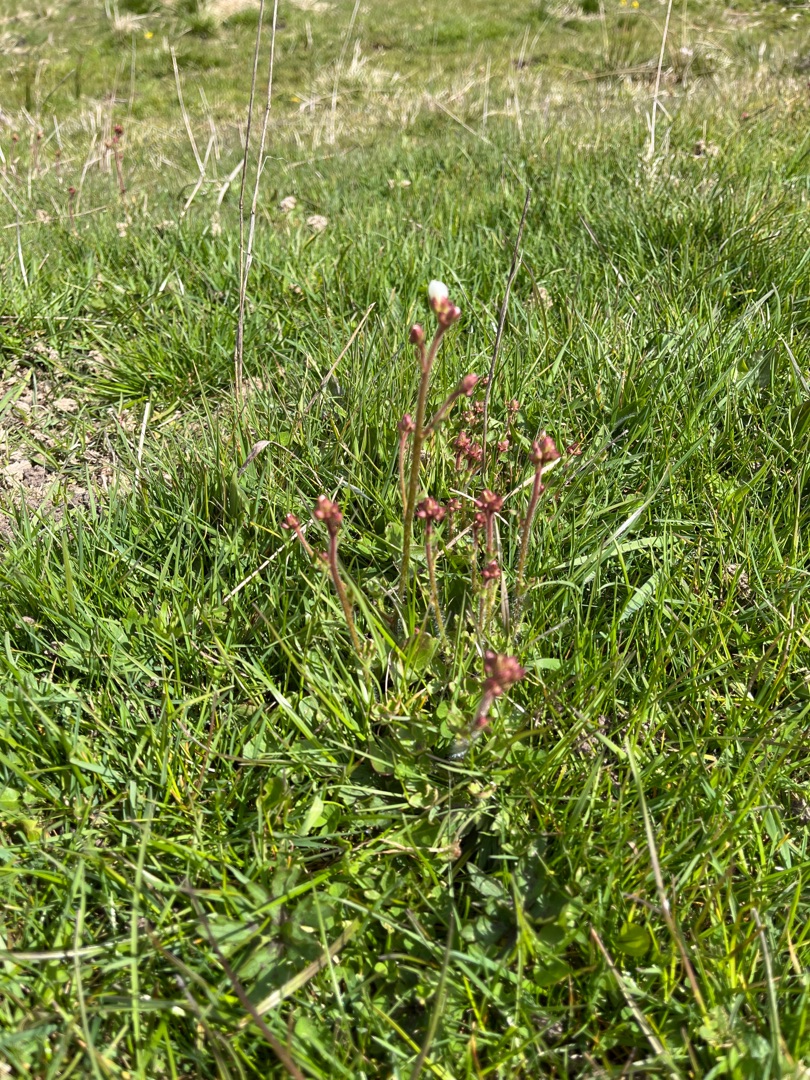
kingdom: Plantae
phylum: Tracheophyta
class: Magnoliopsida
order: Saxifragales
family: Saxifragaceae
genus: Saxifraga
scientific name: Saxifraga granulata
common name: Kornet stenbræk
